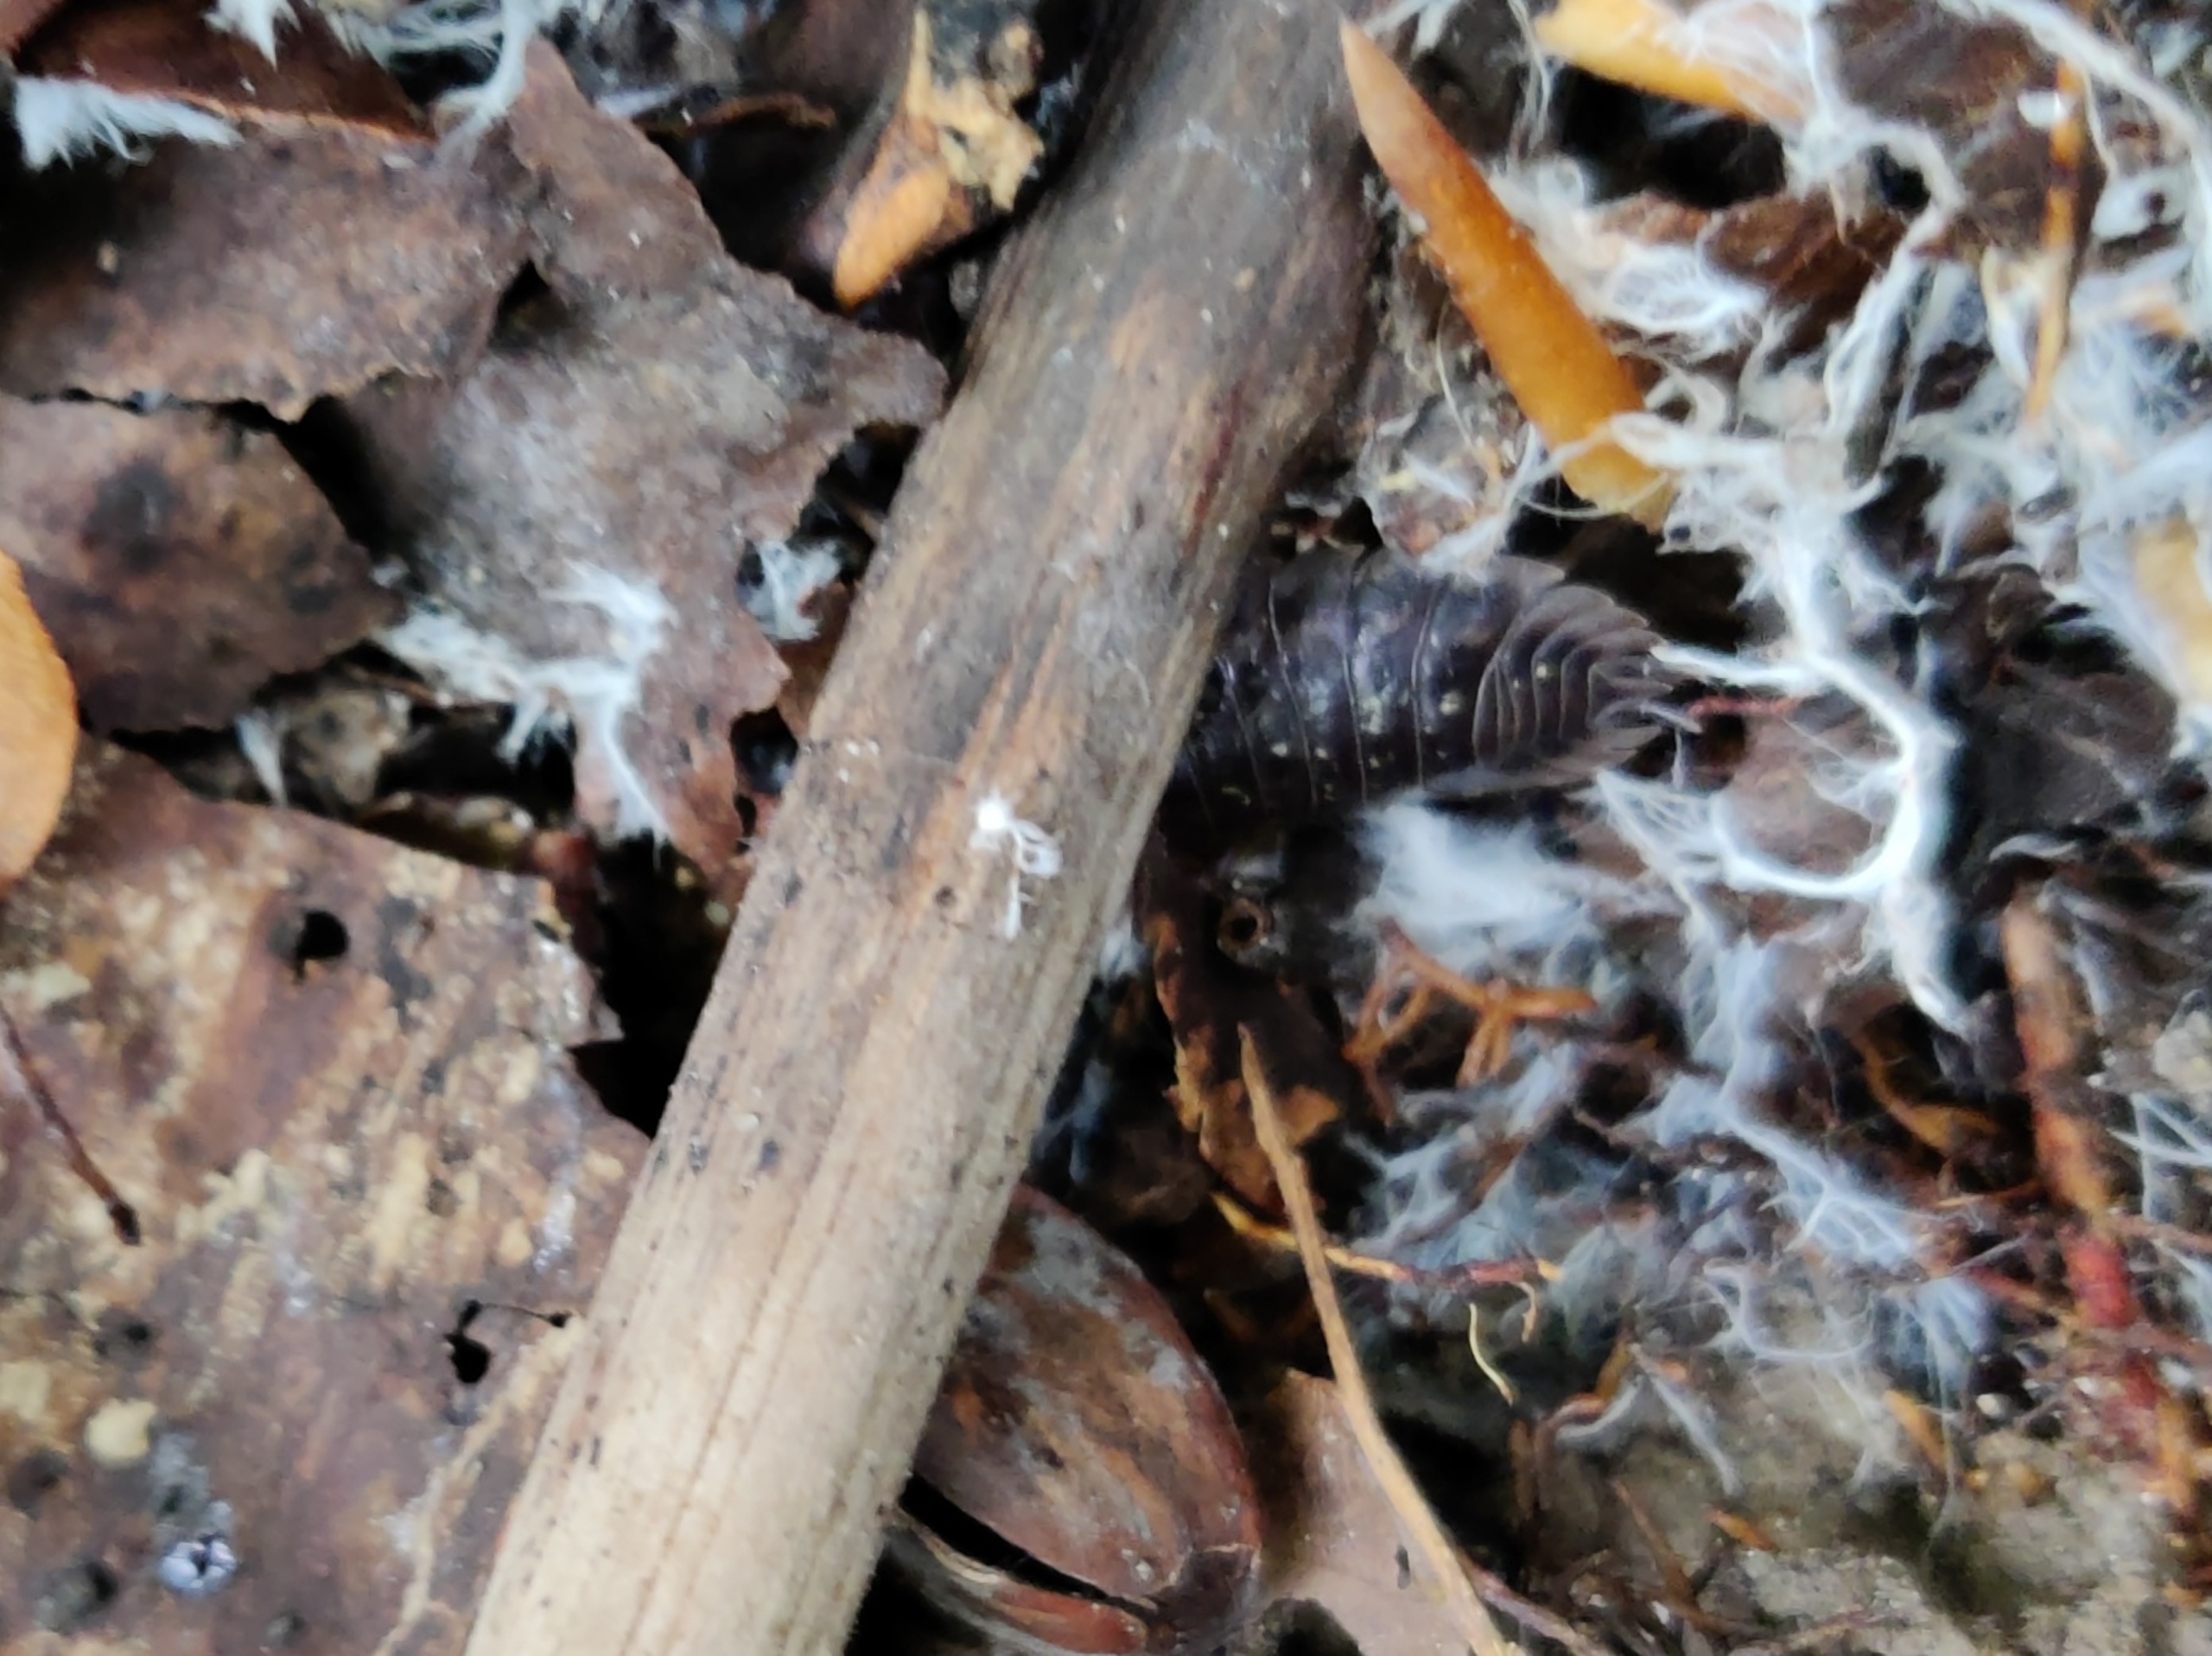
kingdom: Animalia
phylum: Arthropoda
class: Malacostraca
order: Isopoda
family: Oniscidae
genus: Oniscus
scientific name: Oniscus asellus
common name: Glat bænkebider
